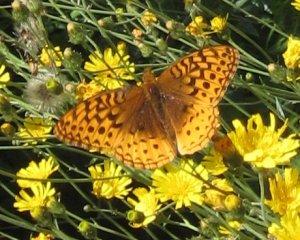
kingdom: Animalia
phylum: Arthropoda
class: Insecta
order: Lepidoptera
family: Nymphalidae
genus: Speyeria
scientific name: Speyeria cybele
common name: Great Spangled Fritillary
